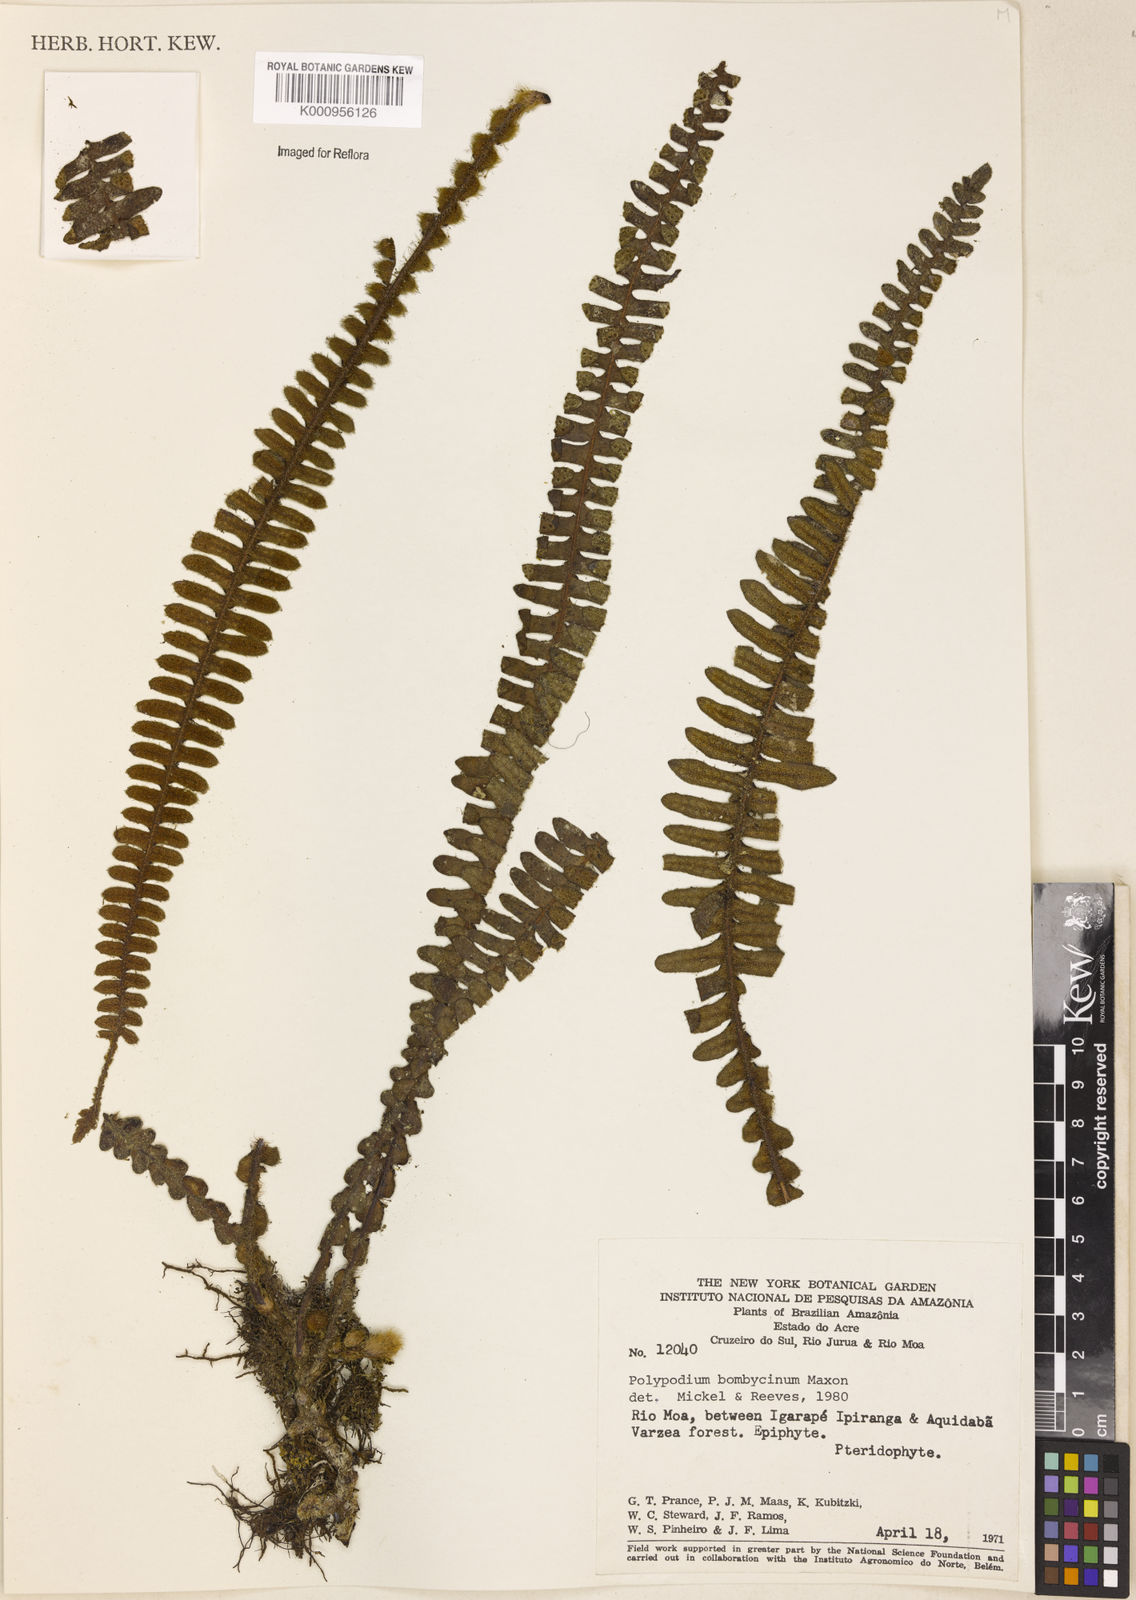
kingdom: Plantae
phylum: Tracheophyta
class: Polypodiopsida
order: Polypodiales
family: Polypodiaceae
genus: Pleopeltis
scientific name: Pleopeltis bombycina
